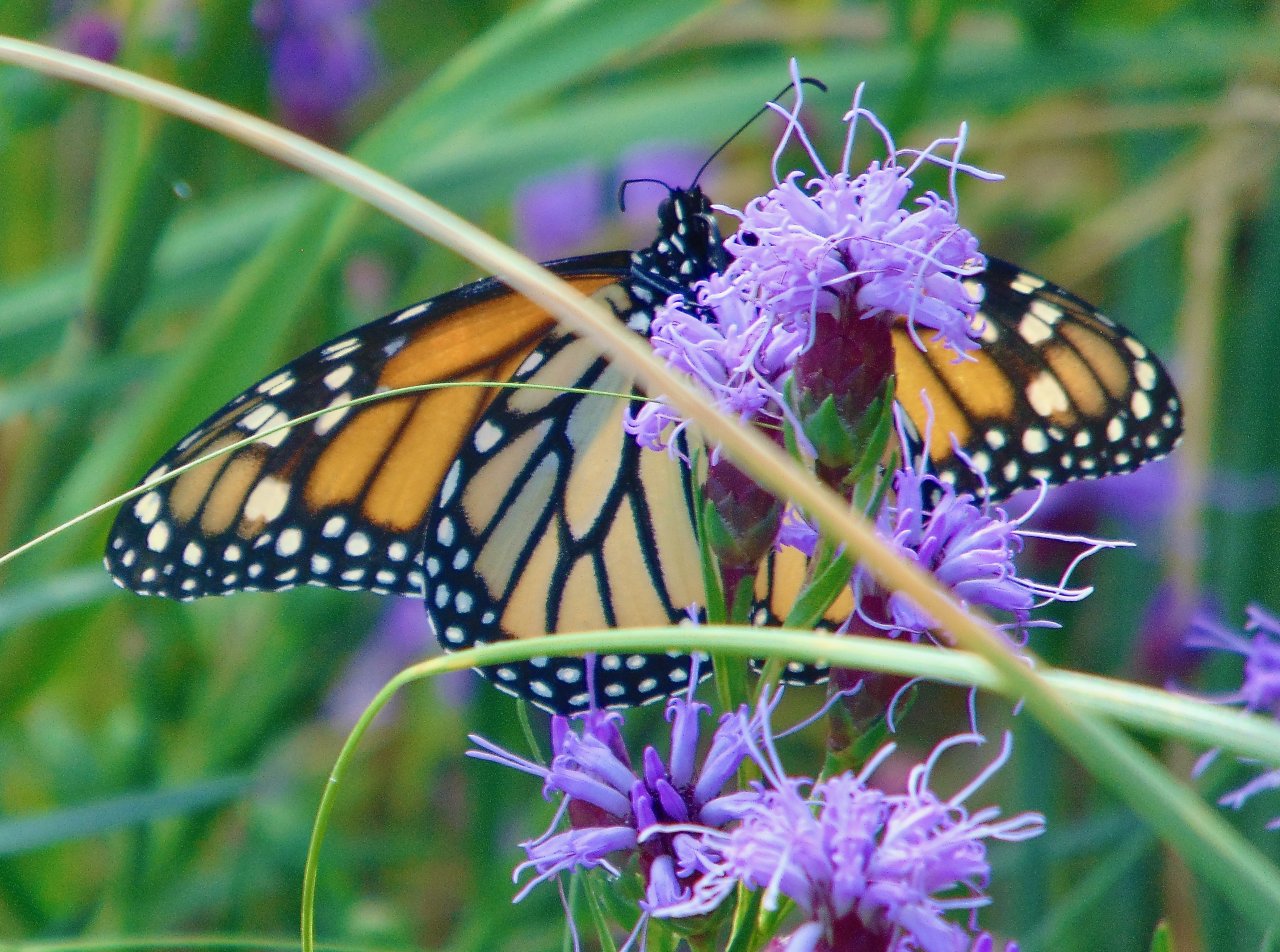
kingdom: Animalia
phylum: Arthropoda
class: Insecta
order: Lepidoptera
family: Nymphalidae
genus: Danaus
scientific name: Danaus plexippus
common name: Monarch
